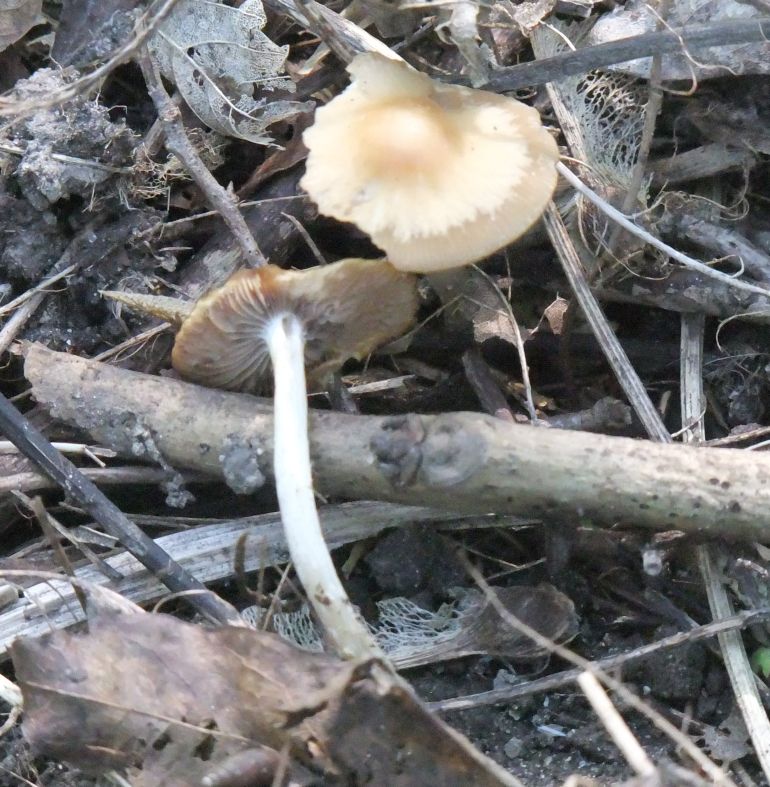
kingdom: Fungi
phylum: Basidiomycota
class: Agaricomycetes
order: Agaricales
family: Psathyrellaceae
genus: Psathyrella
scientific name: Psathyrella spadiceogrisea
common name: gråbrun mørkhat
